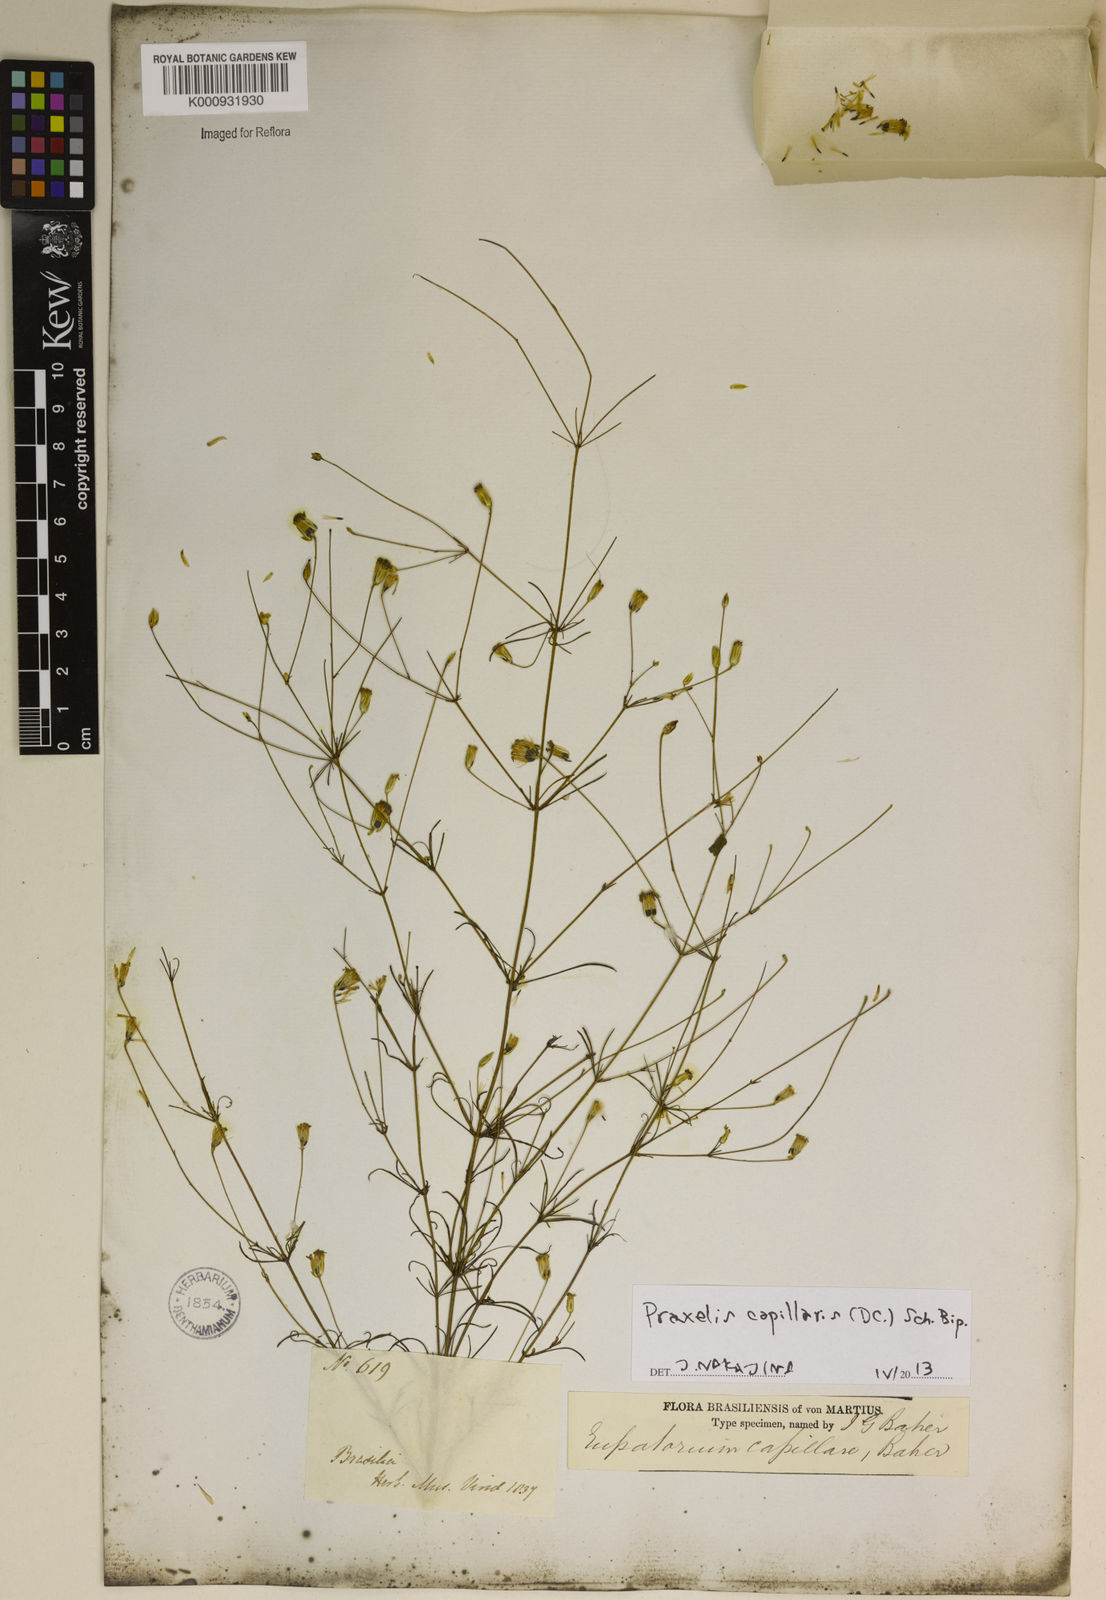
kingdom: Plantae
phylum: Tracheophyta
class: Magnoliopsida
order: Asterales
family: Asteraceae
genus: Praxelis
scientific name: Praxelis capillaris
